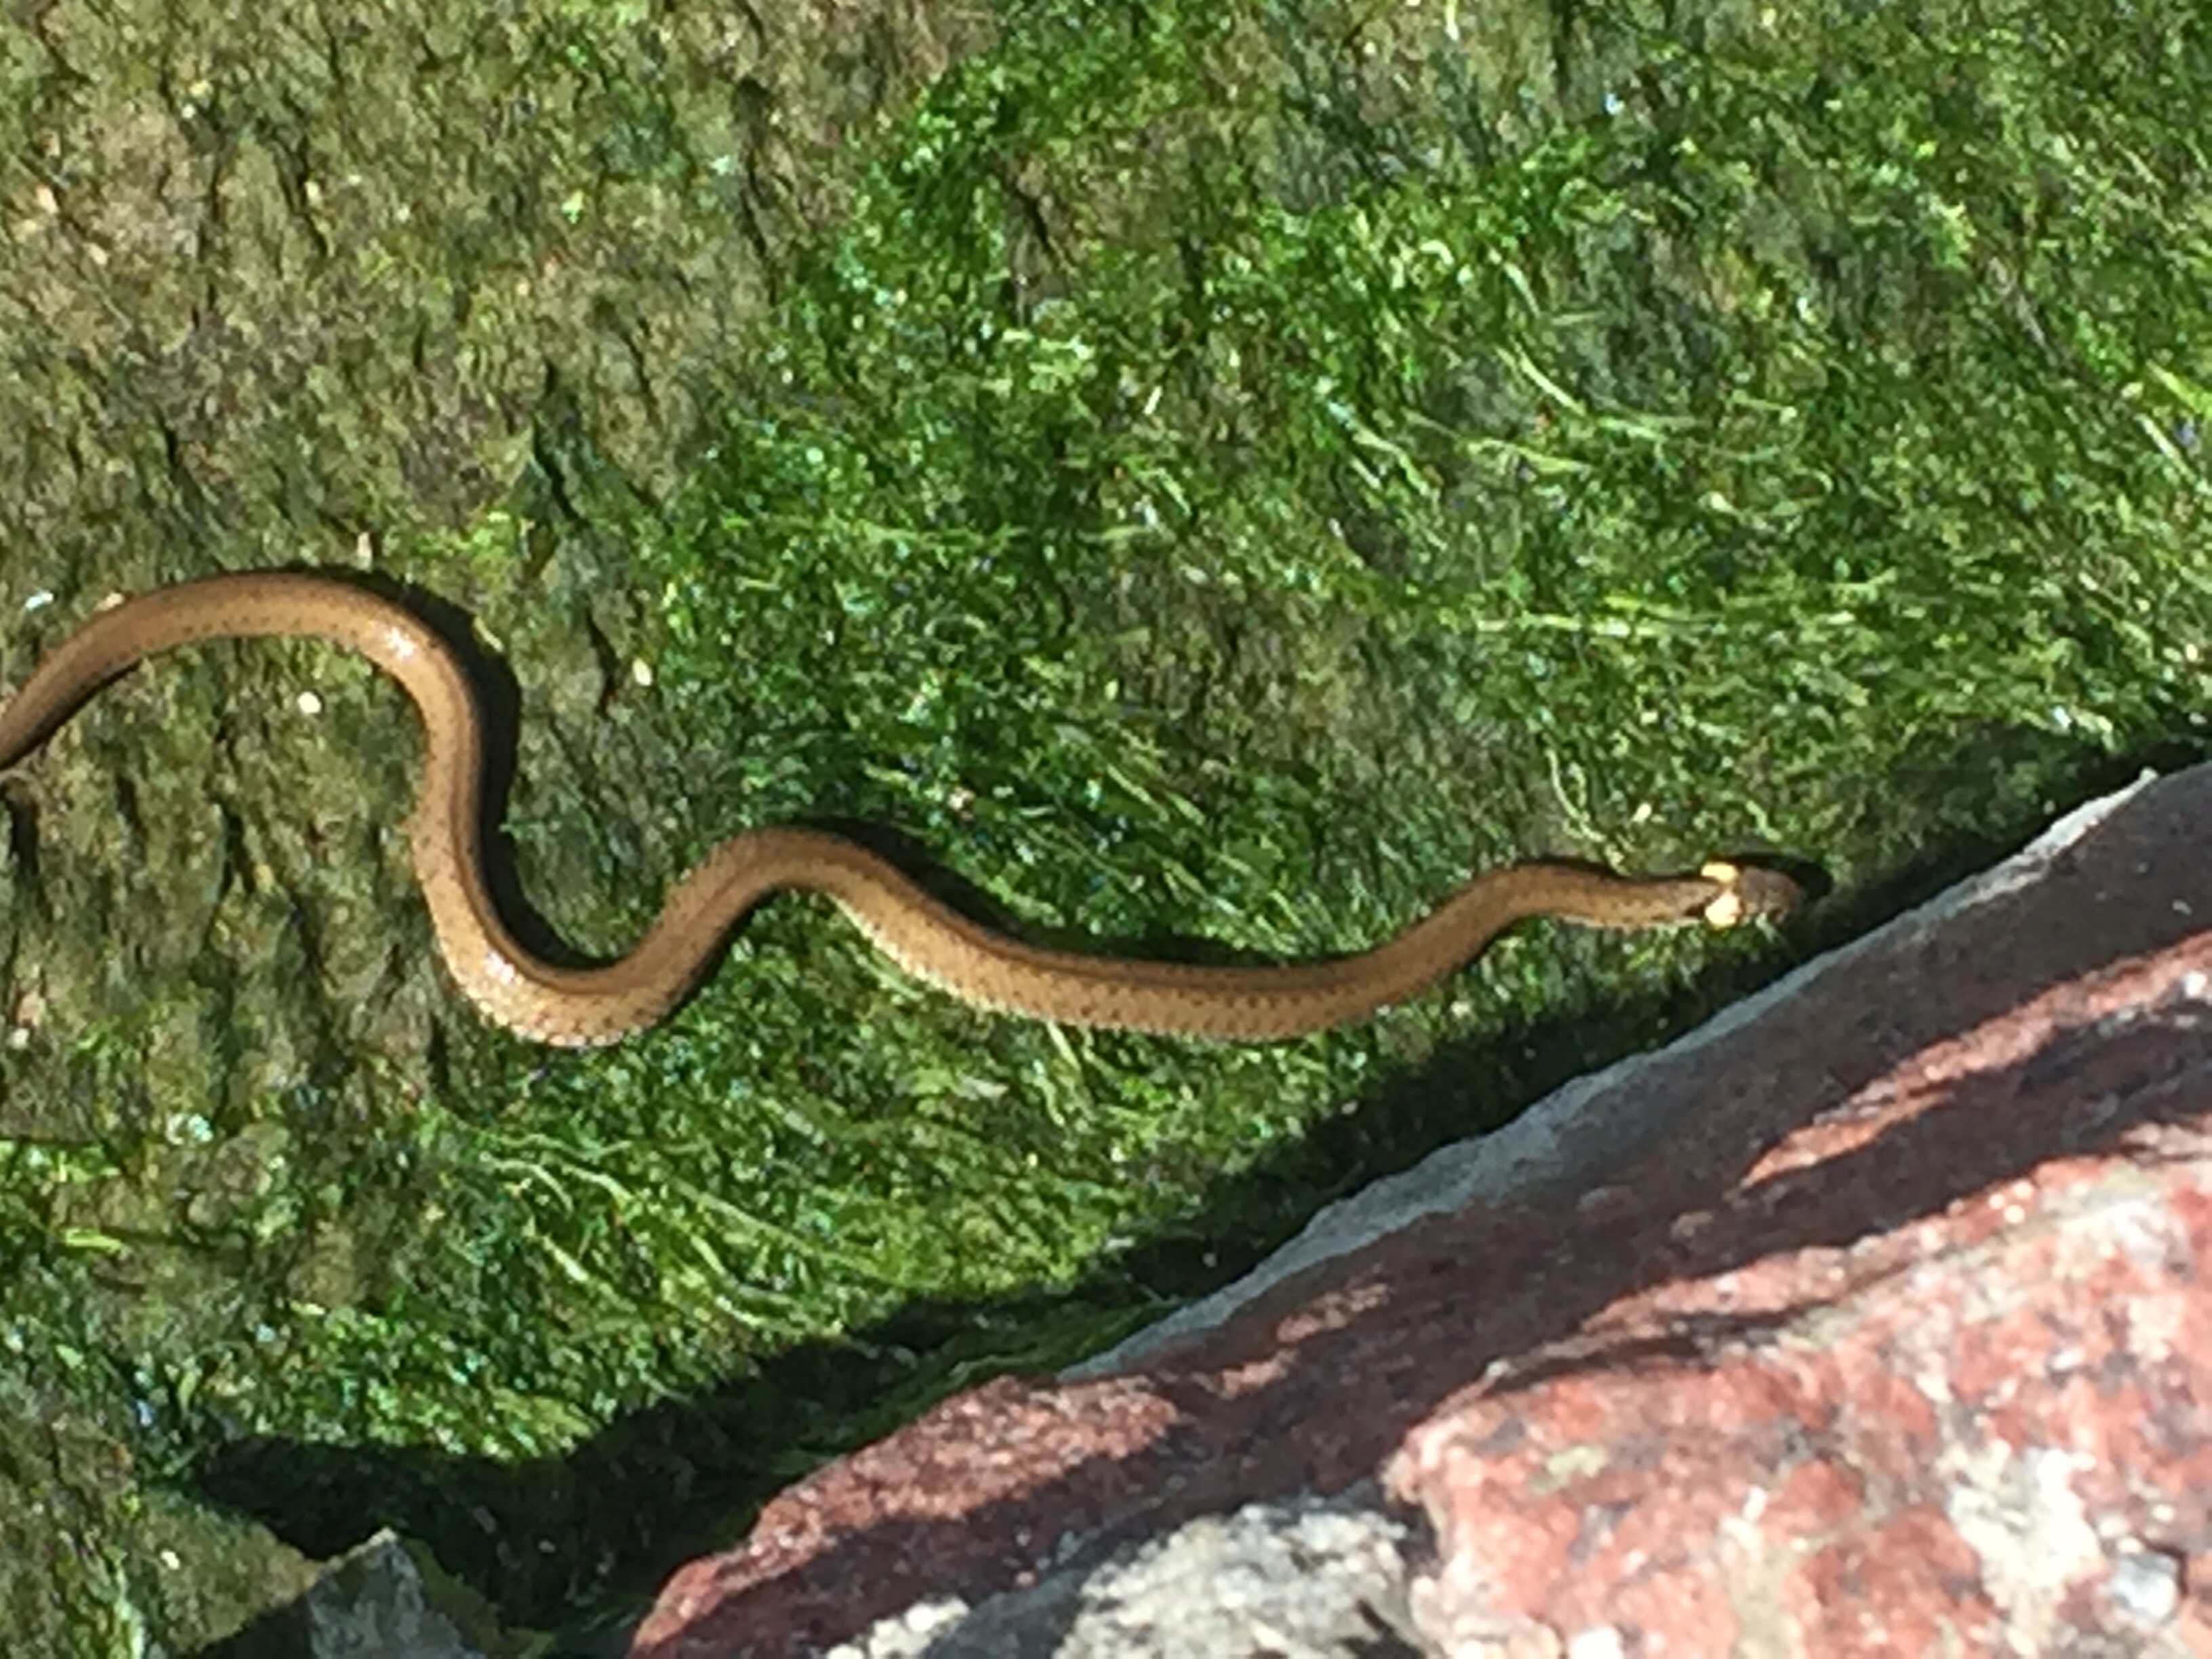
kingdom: Animalia
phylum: Chordata
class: Squamata
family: Colubridae
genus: Natrix
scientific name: Natrix natrix
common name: Grass snake
